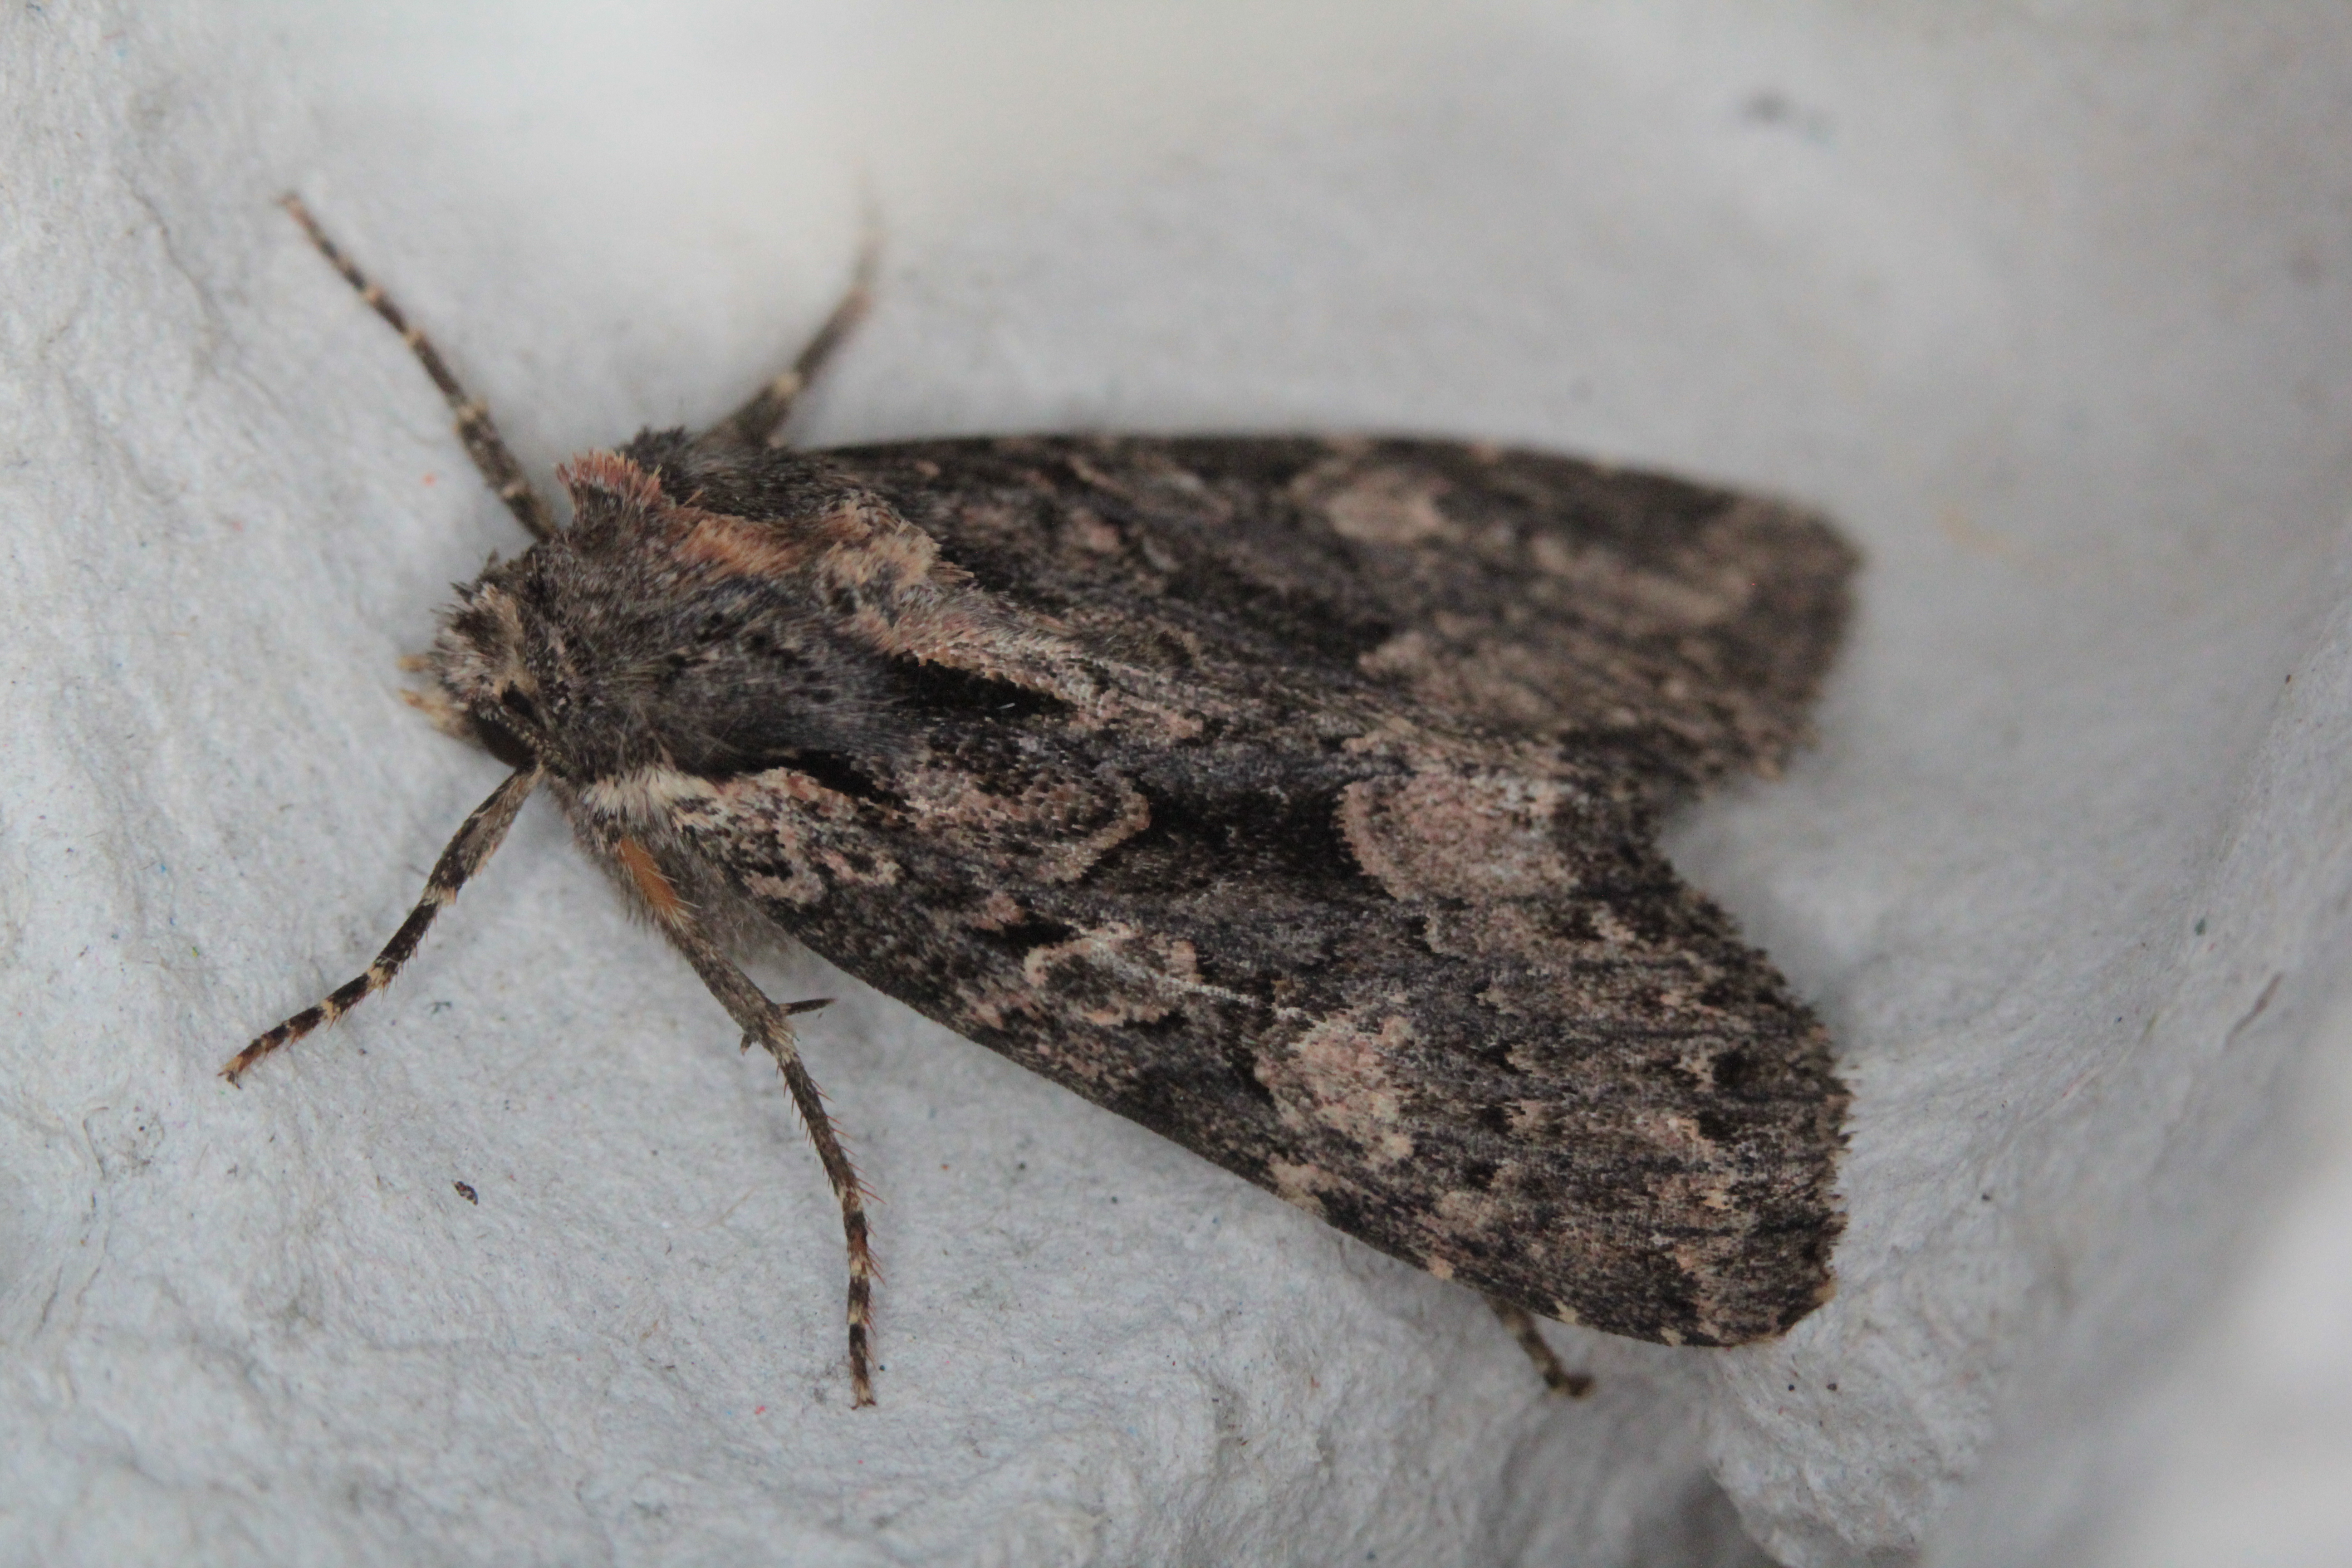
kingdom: Animalia
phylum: Arthropoda
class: Insecta
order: Lepidoptera
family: Noctuidae
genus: Mniotype
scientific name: Mniotype satura
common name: Beautiful arches
